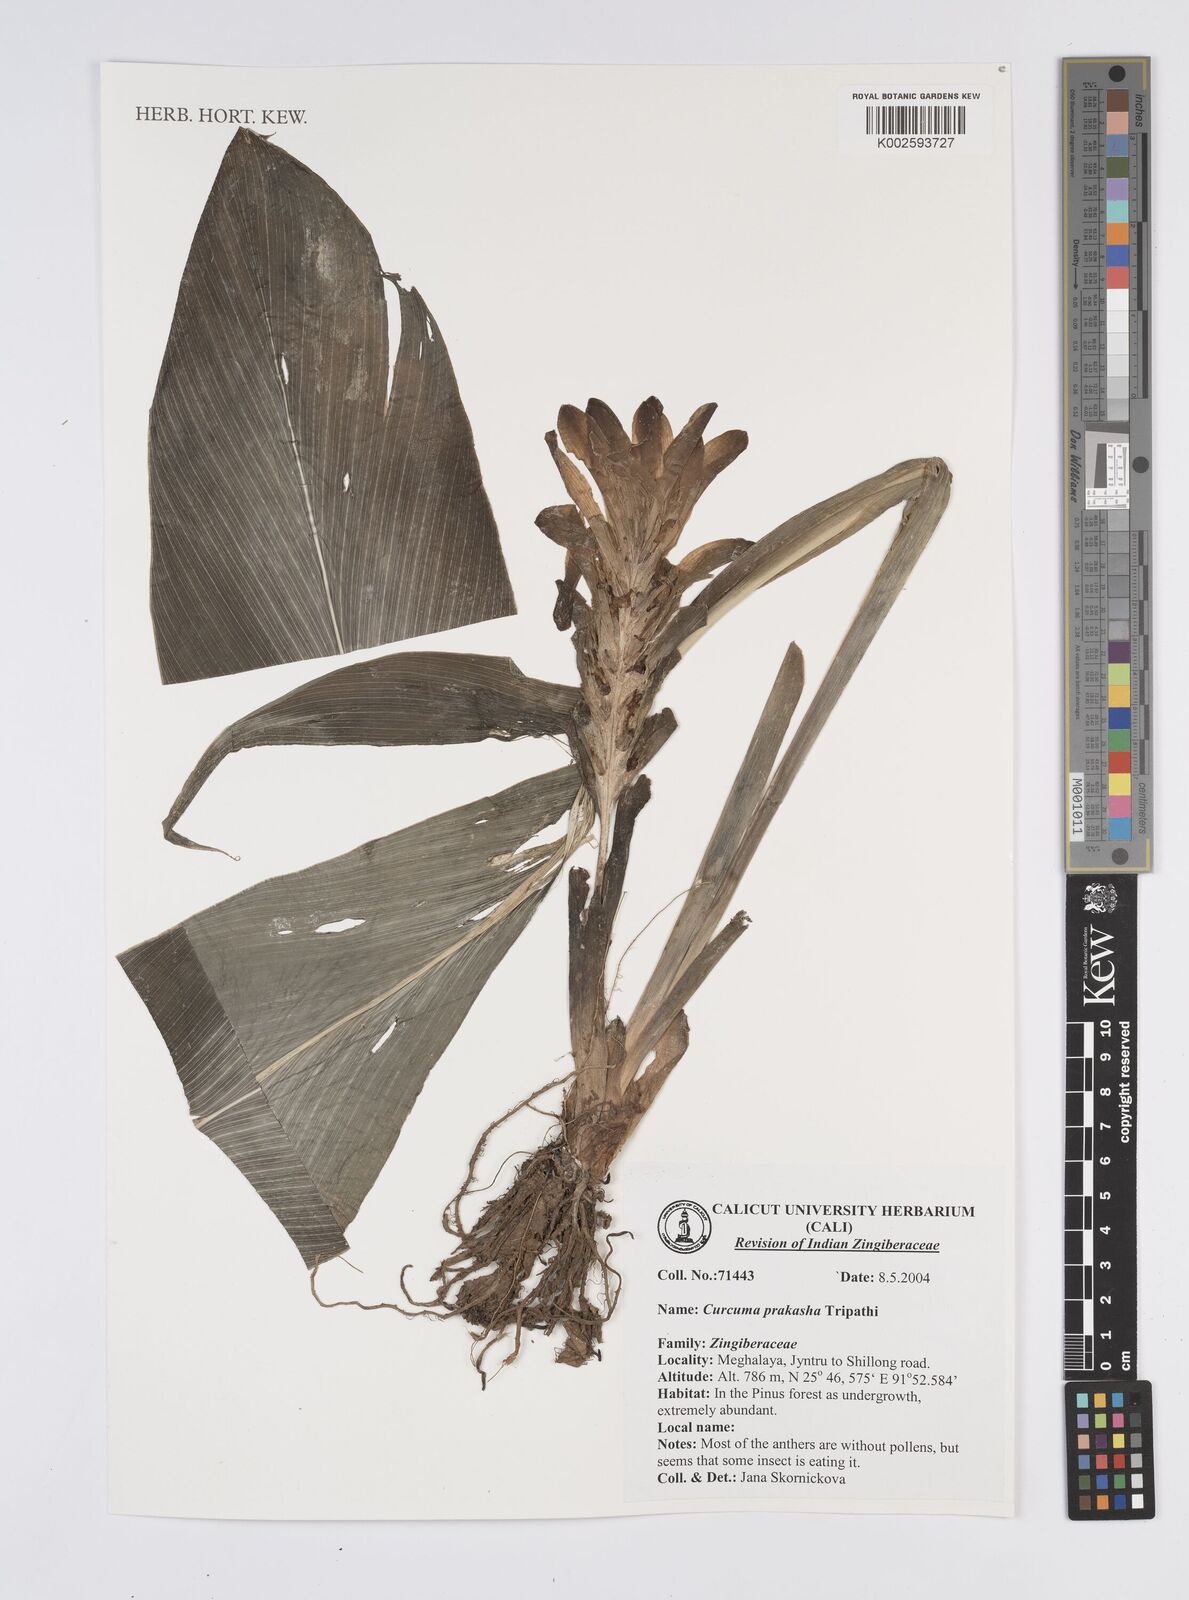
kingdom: Plantae
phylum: Tracheophyta
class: Liliopsida
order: Zingiberales
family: Zingiberaceae
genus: Curcuma
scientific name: Curcuma prakasha
